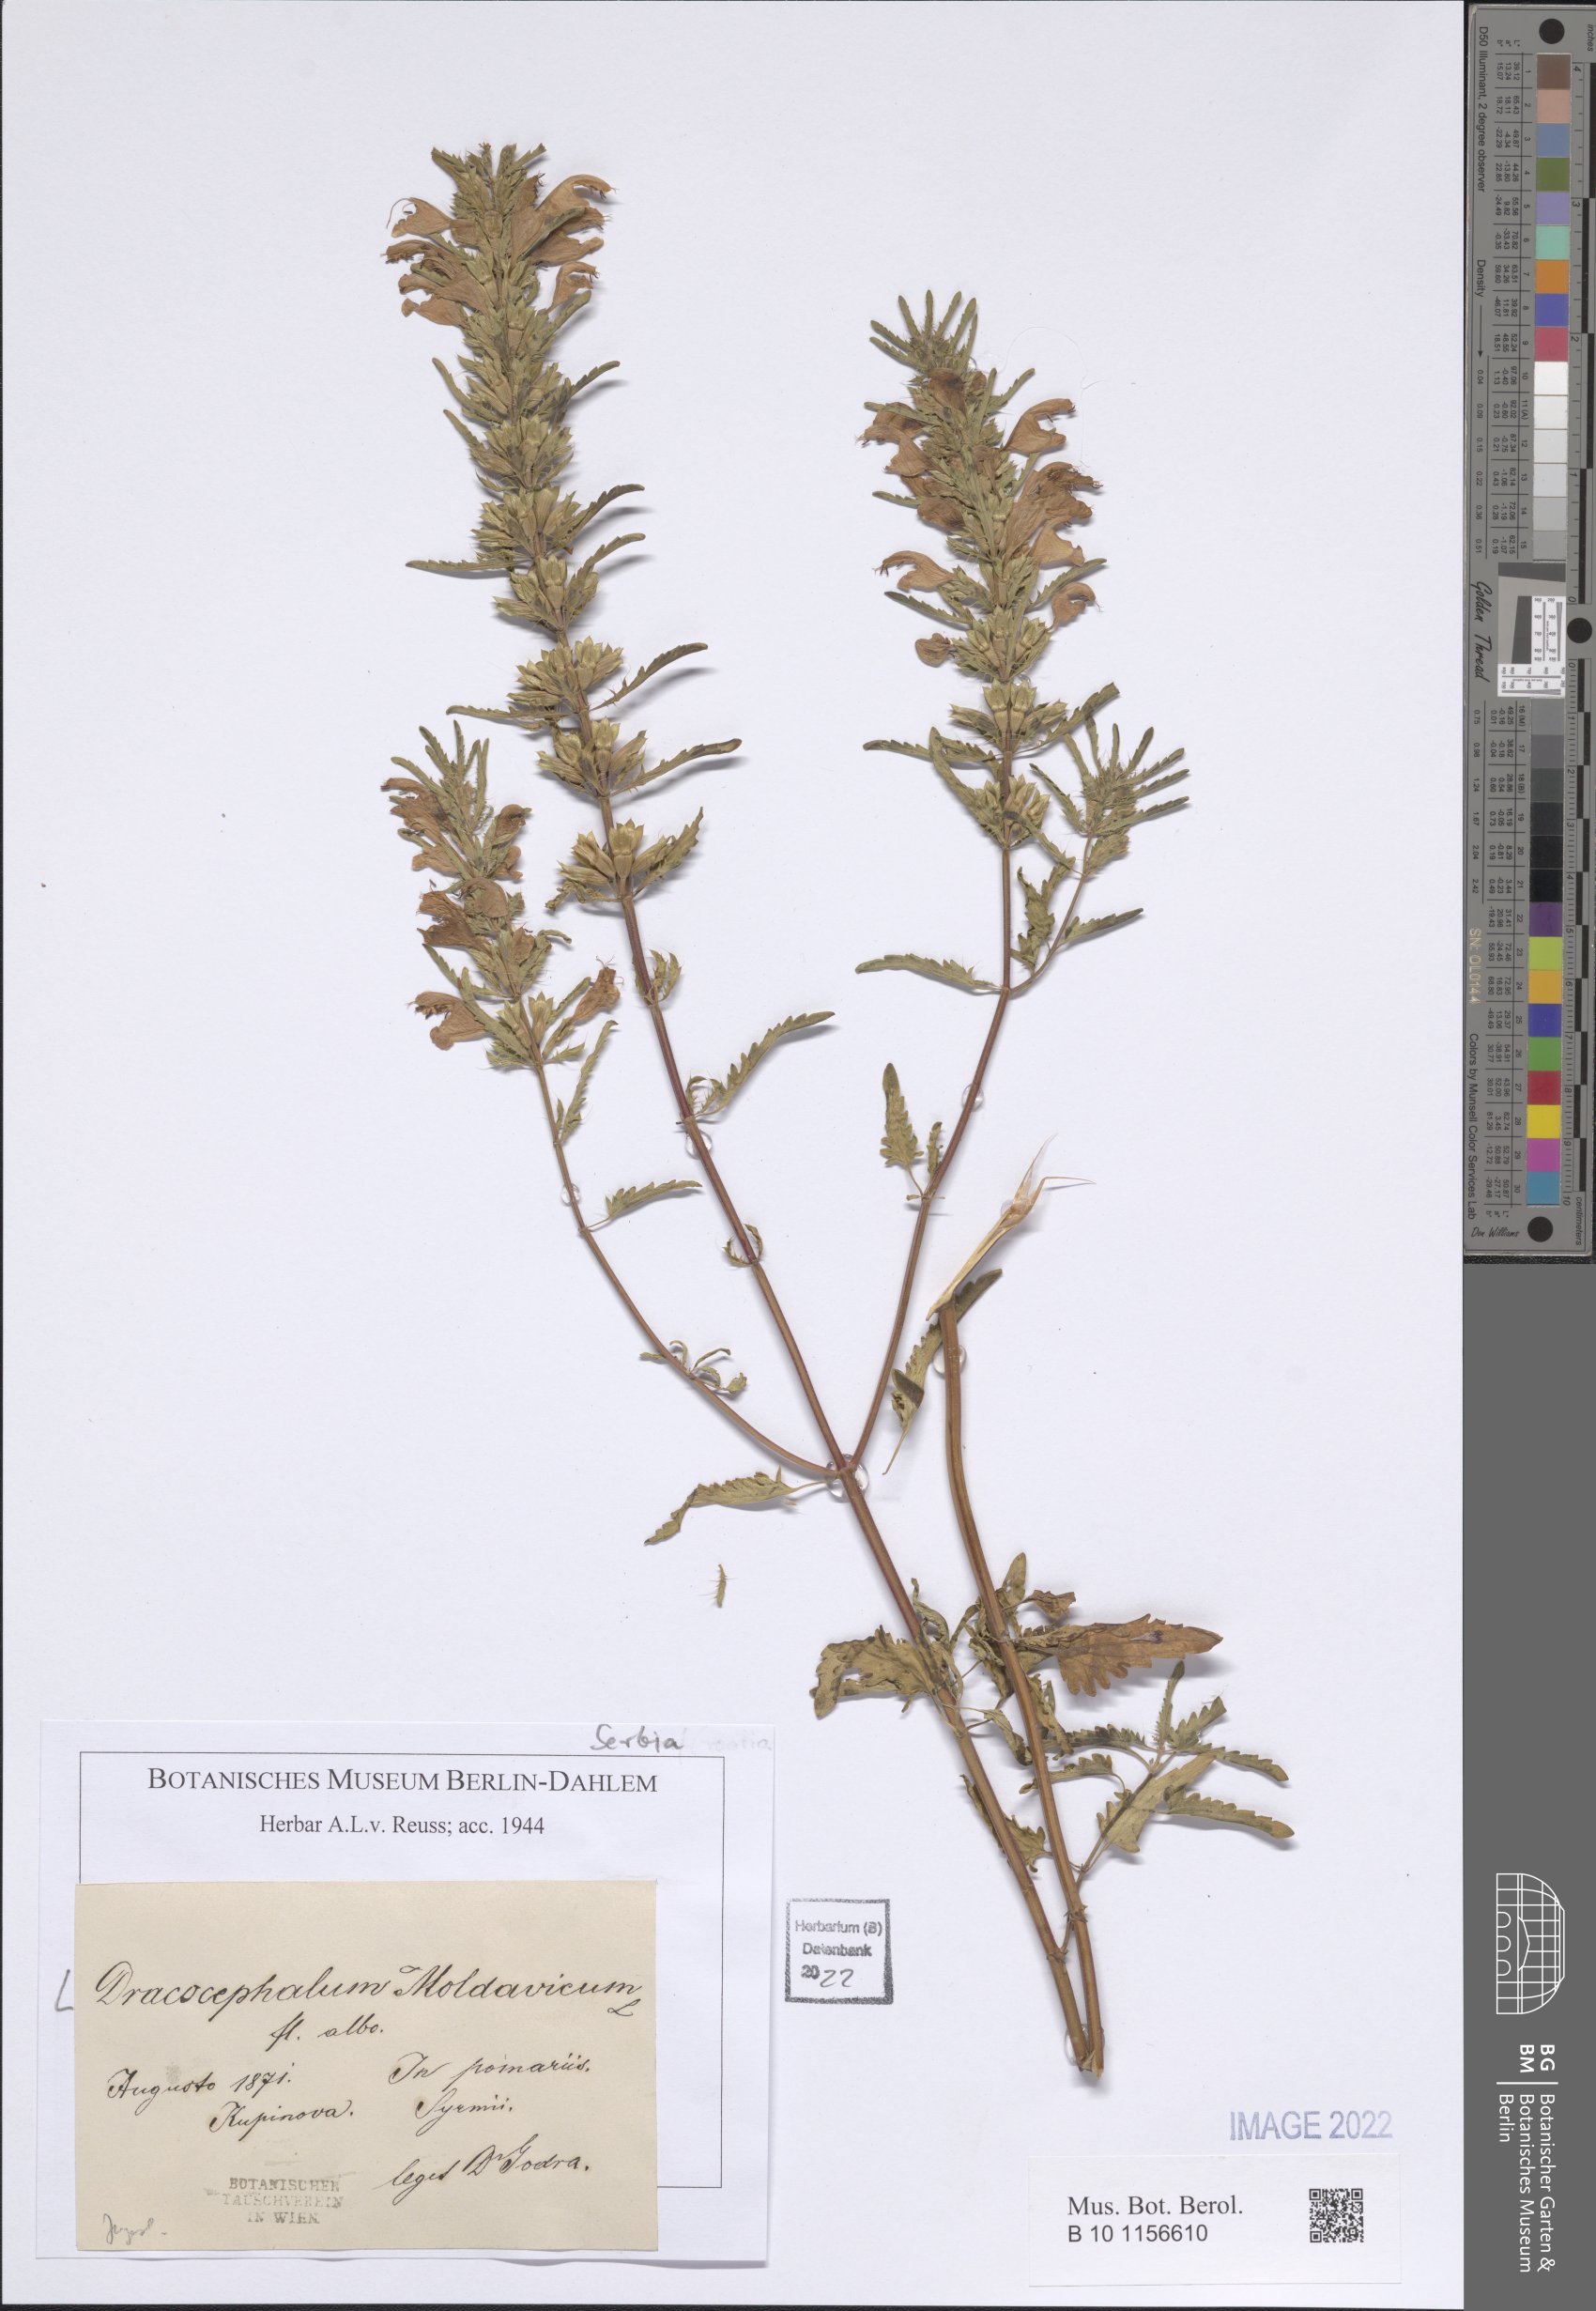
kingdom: Plantae
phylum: Tracheophyta
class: Magnoliopsida
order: Lamiales
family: Lamiaceae
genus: Dracocephalum
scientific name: Dracocephalum moldavica
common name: Moldavian dragonhead
